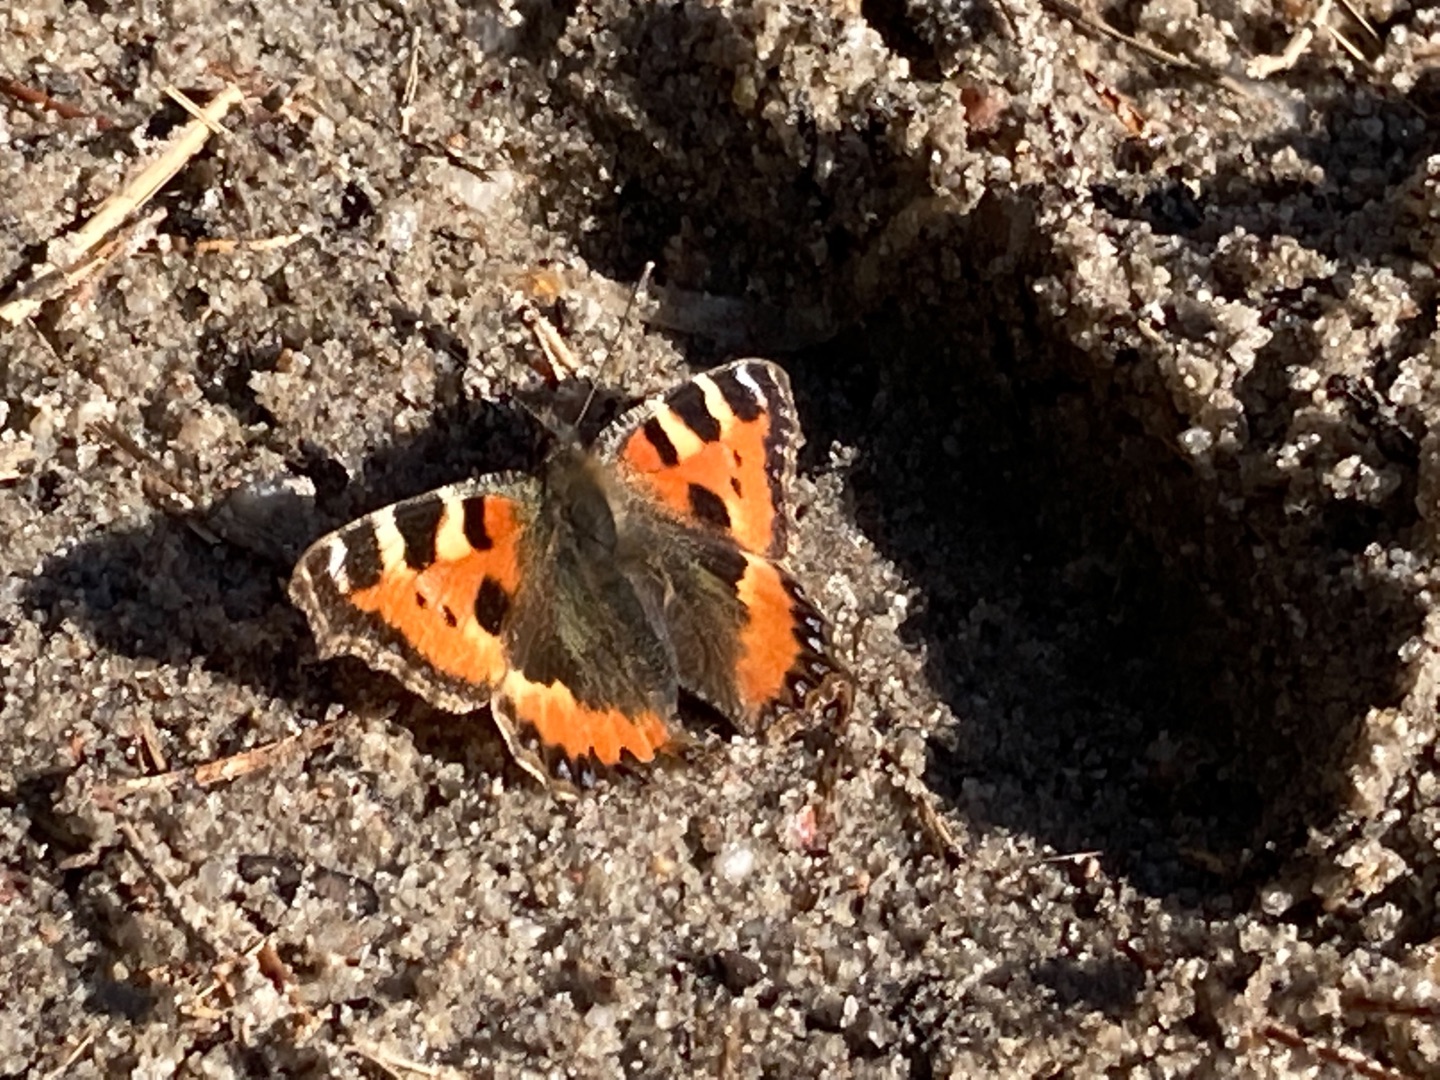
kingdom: Animalia
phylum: Arthropoda
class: Insecta
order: Lepidoptera
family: Nymphalidae
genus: Aglais
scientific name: Aglais urticae
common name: Nældens takvinge
